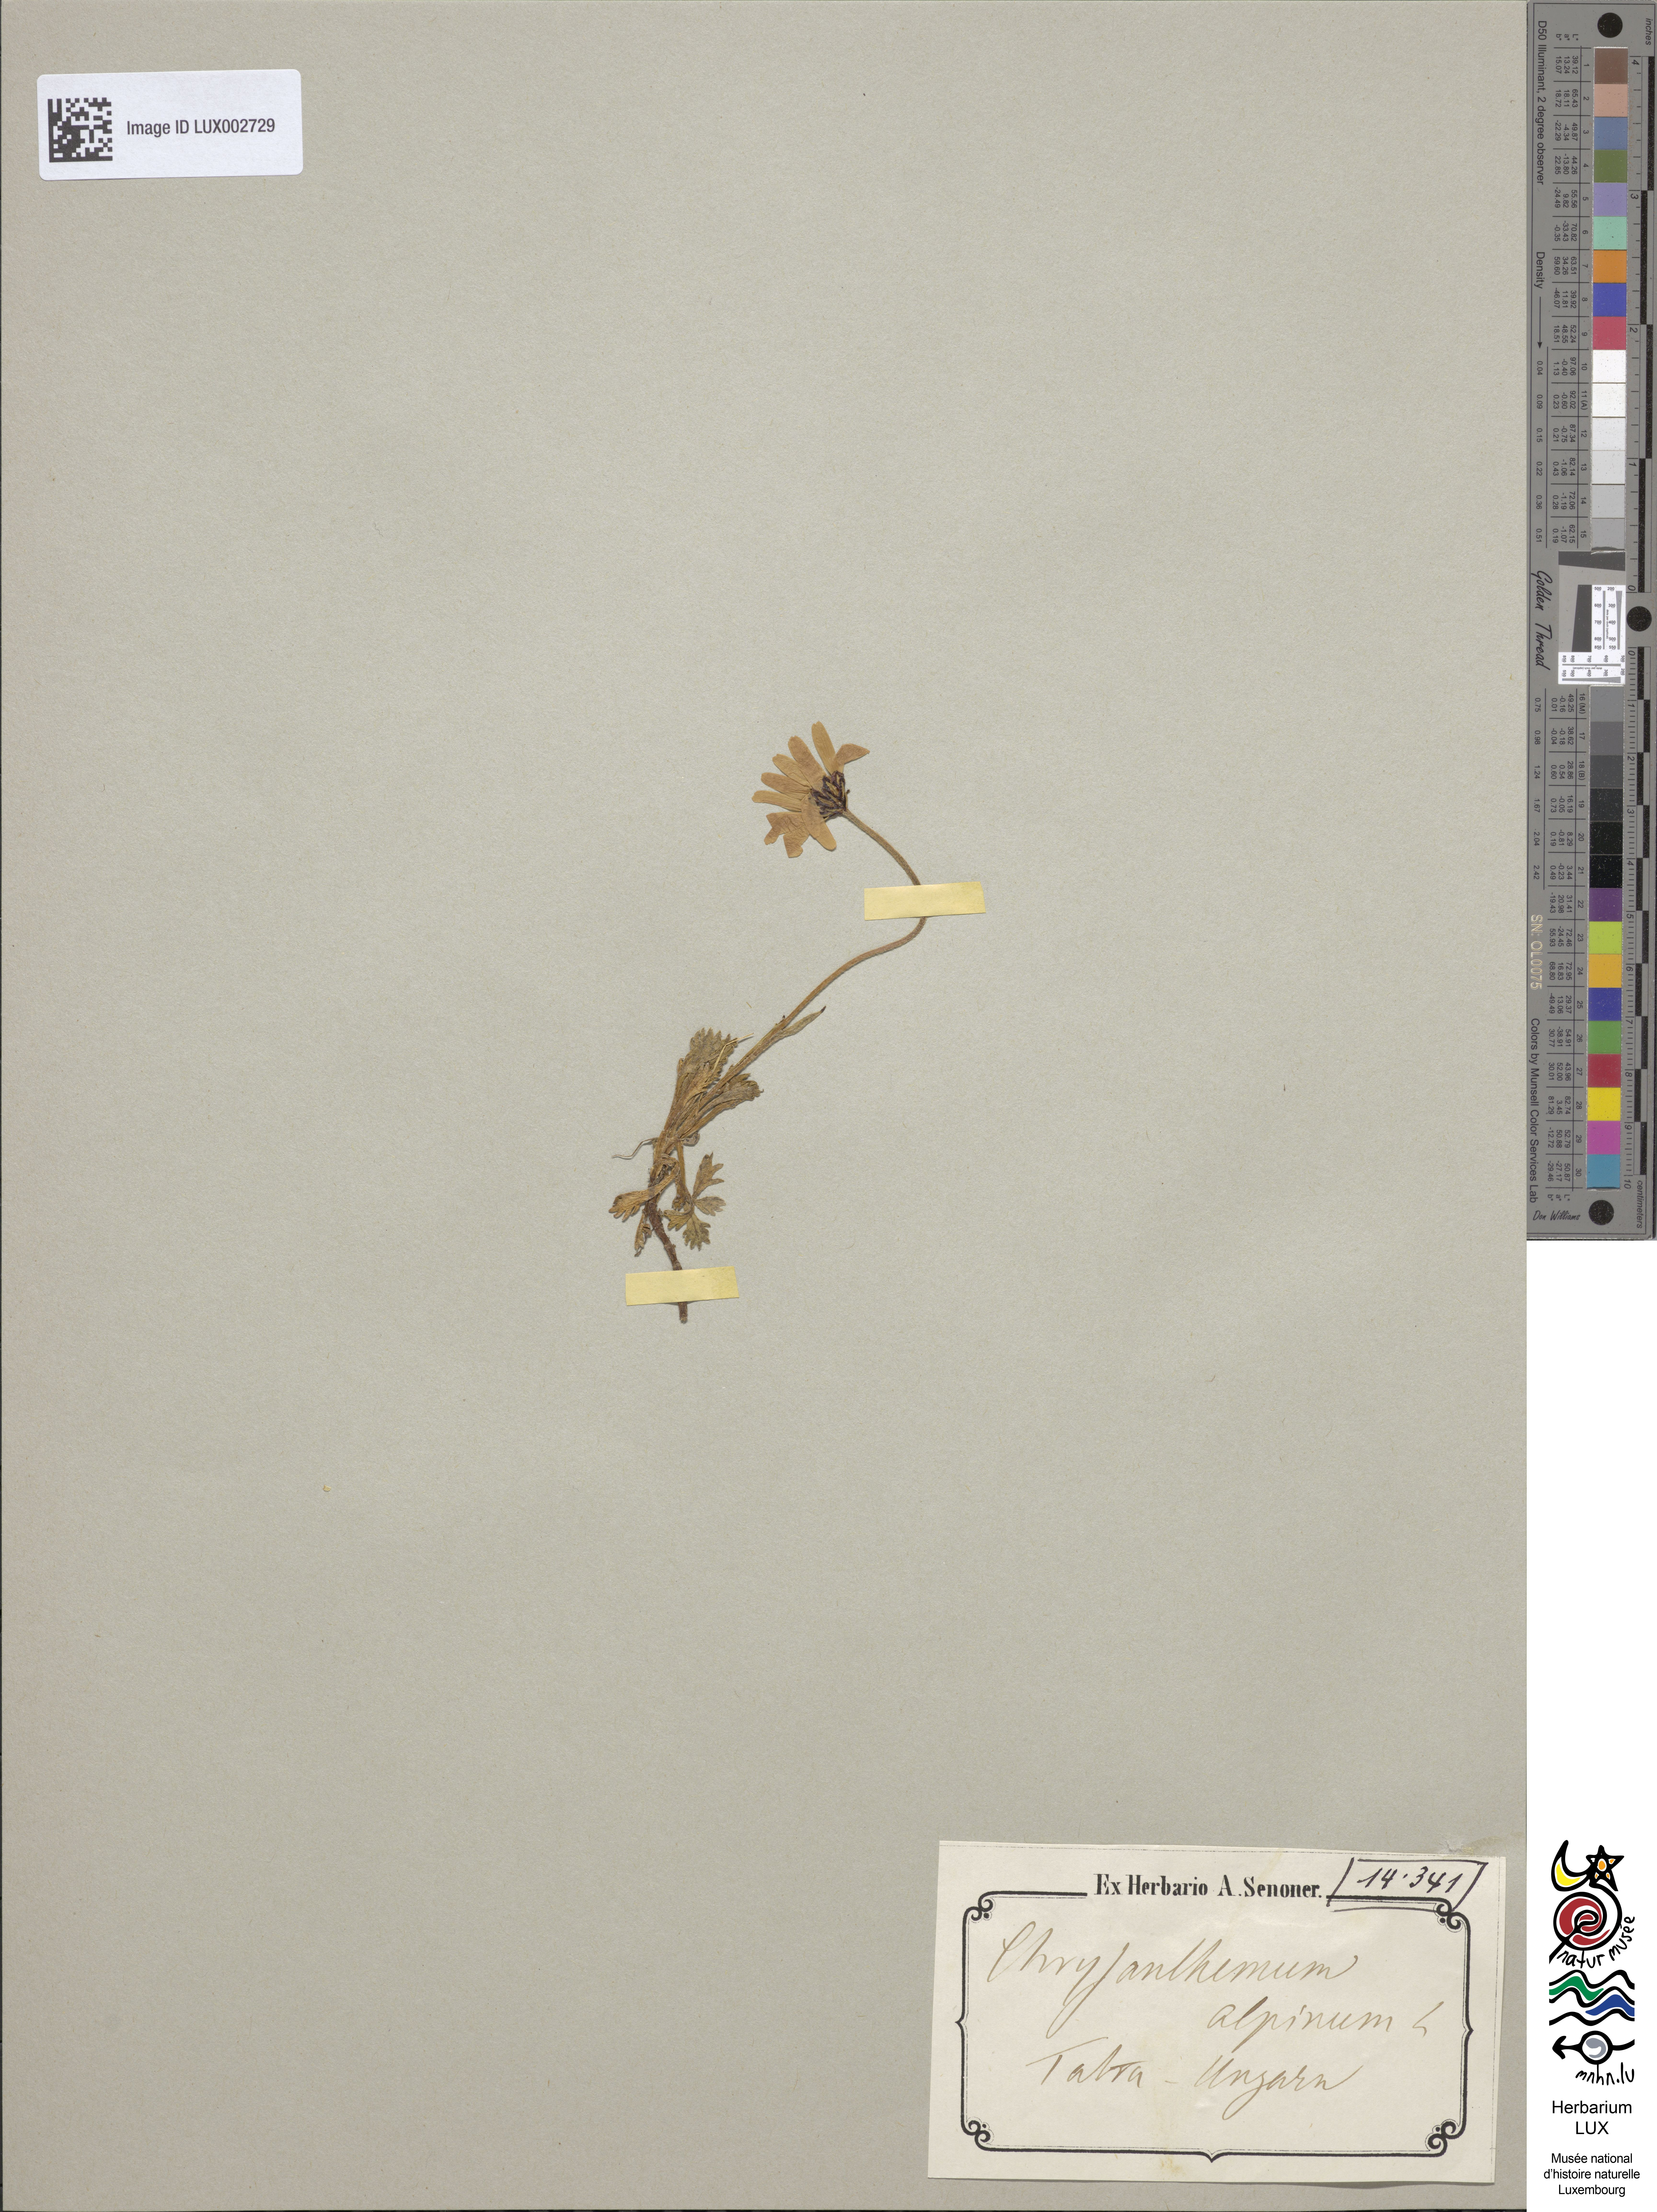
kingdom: Plantae
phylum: Tracheophyta
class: Magnoliopsida
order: Asterales
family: Asteraceae
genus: Leucanthemopsis
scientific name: Leucanthemopsis alpina
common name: Alpine moon daisy
